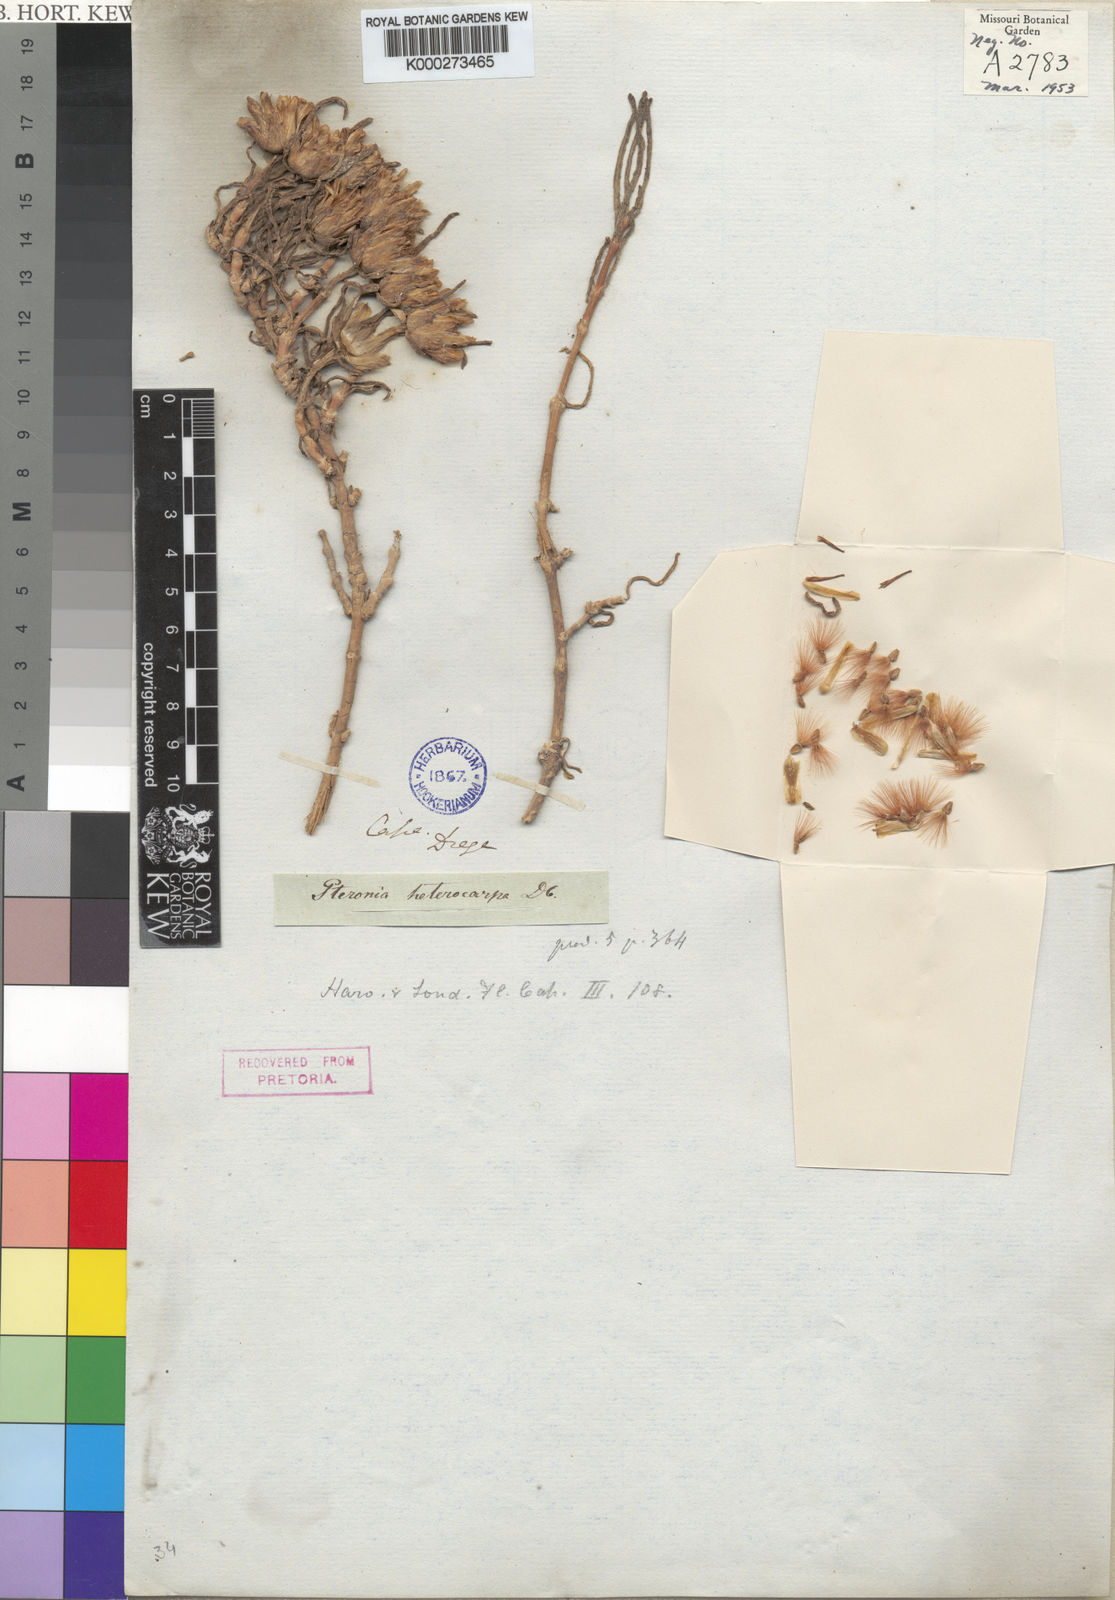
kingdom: Plantae
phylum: Tracheophyta
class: Magnoliopsida
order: Asterales
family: Asteraceae
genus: Pteronia
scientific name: Pteronia heterocarpa
